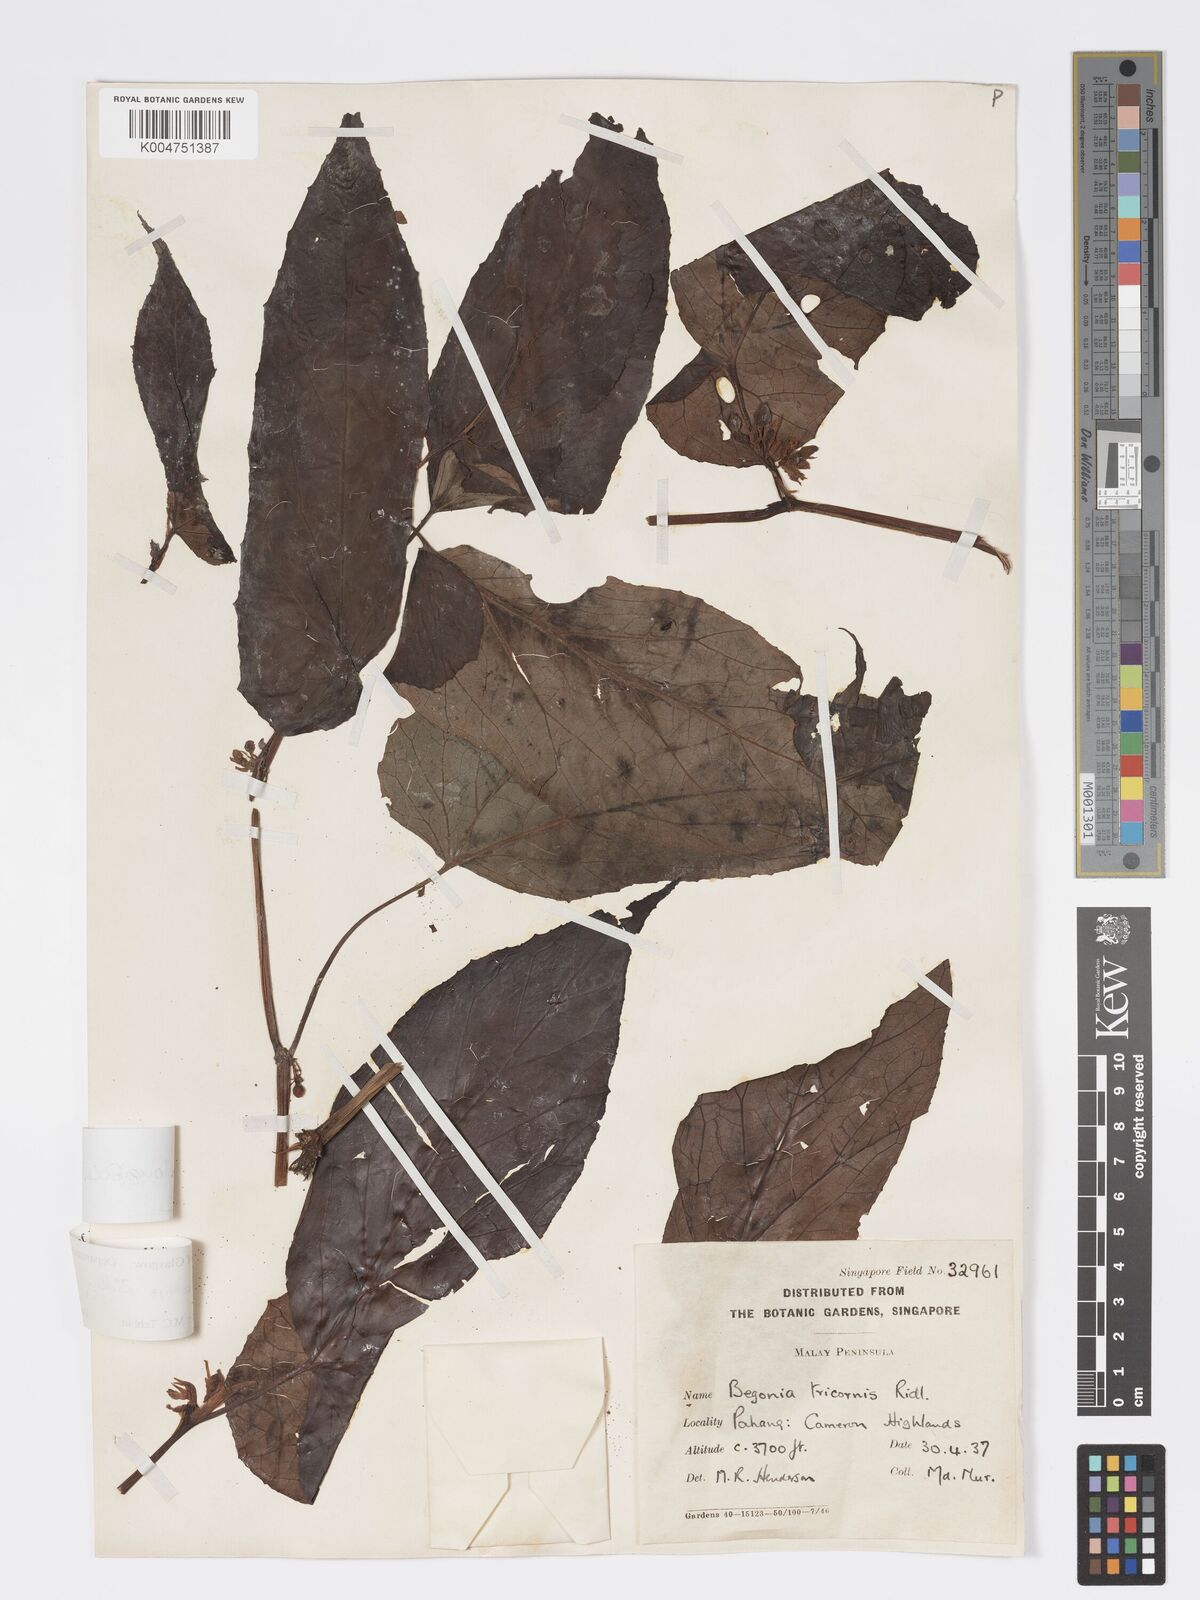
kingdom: Plantae
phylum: Tracheophyta
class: Magnoliopsida
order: Cucurbitales
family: Begoniaceae
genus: Begonia
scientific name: Begonia longifolia
